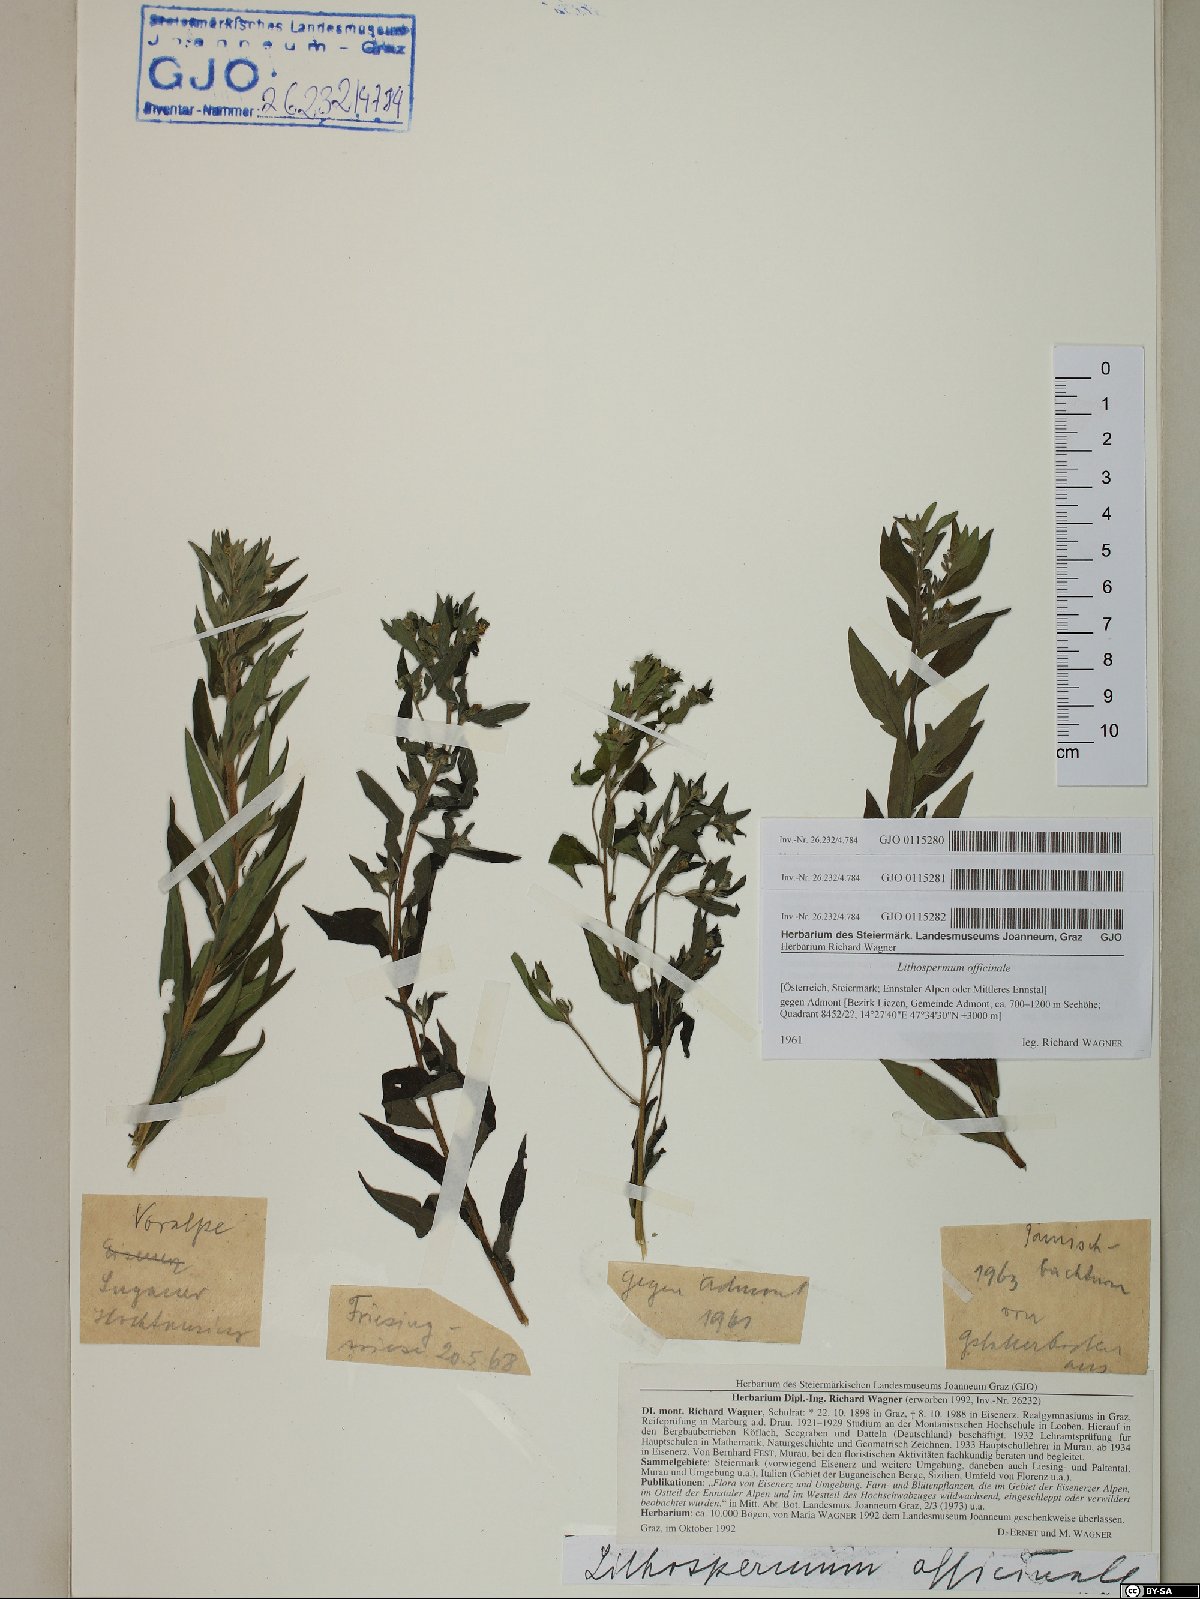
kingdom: Plantae
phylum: Tracheophyta
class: Magnoliopsida
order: Boraginales
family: Boraginaceae
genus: Lithospermum
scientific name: Lithospermum officinale
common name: Common gromwell
